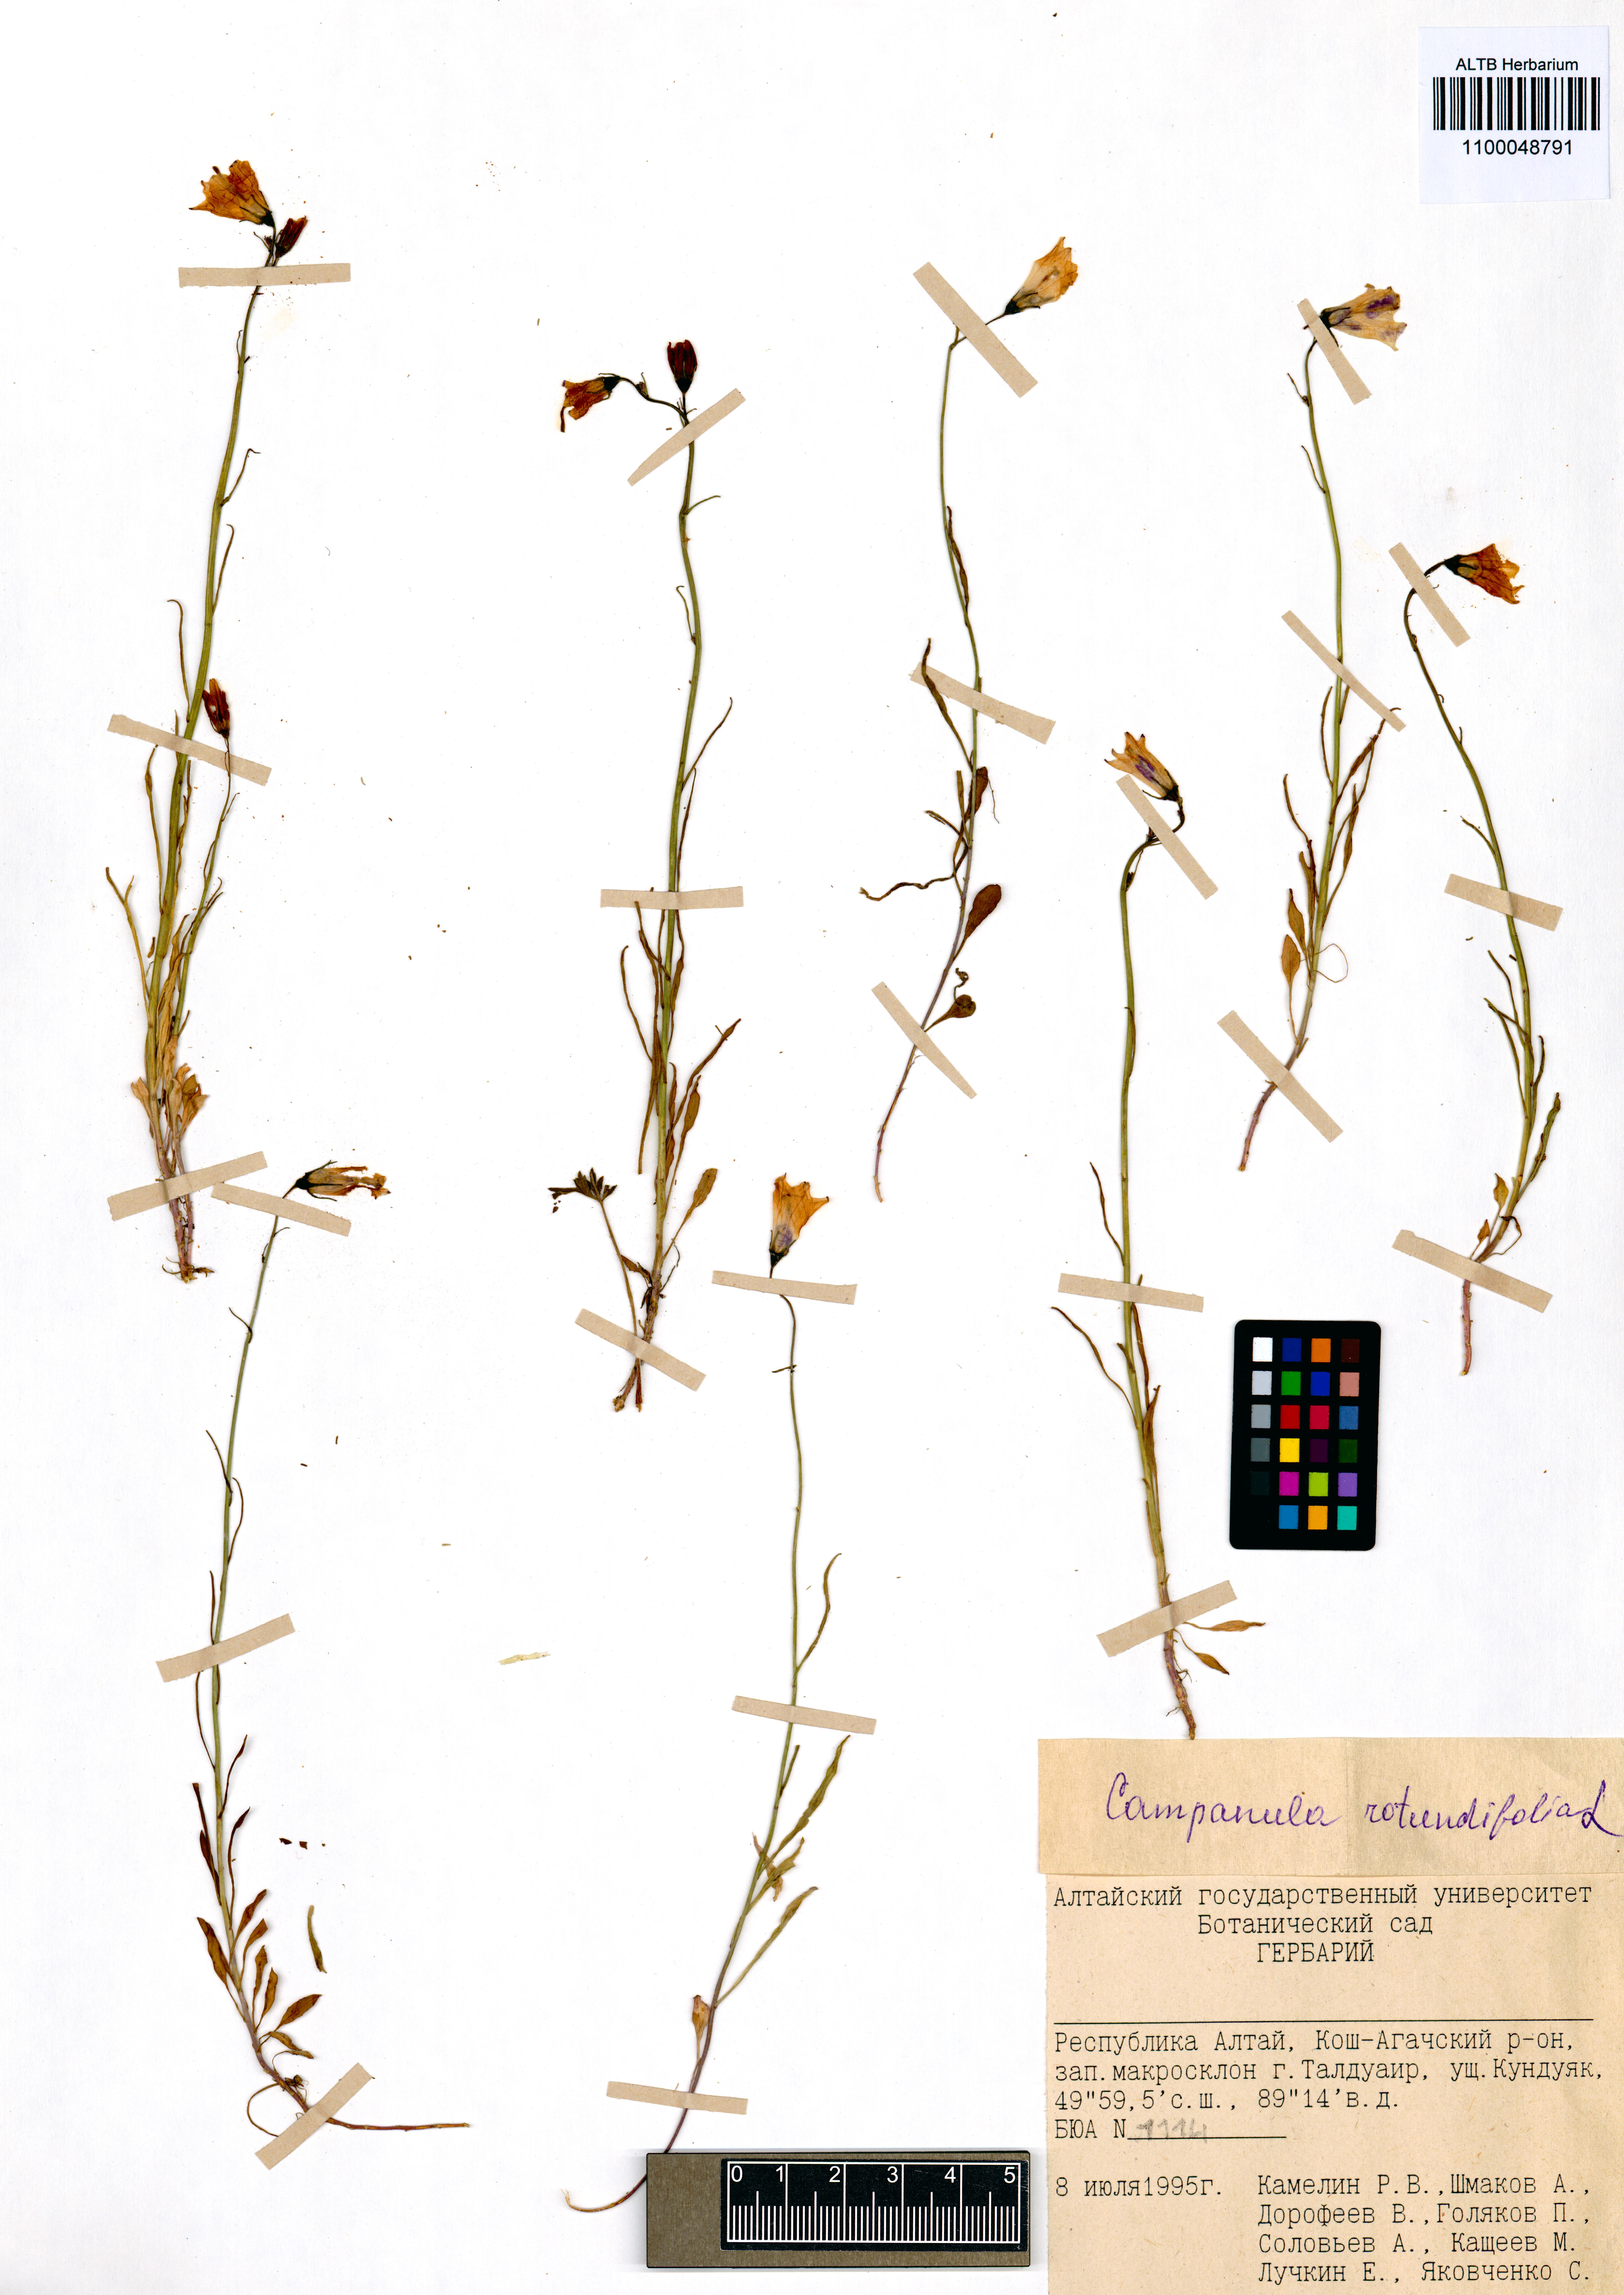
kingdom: Plantae
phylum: Tracheophyta
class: Magnoliopsida
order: Asterales
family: Campanulaceae
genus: Campanula
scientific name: Campanula rotundifolia
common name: Harebell
